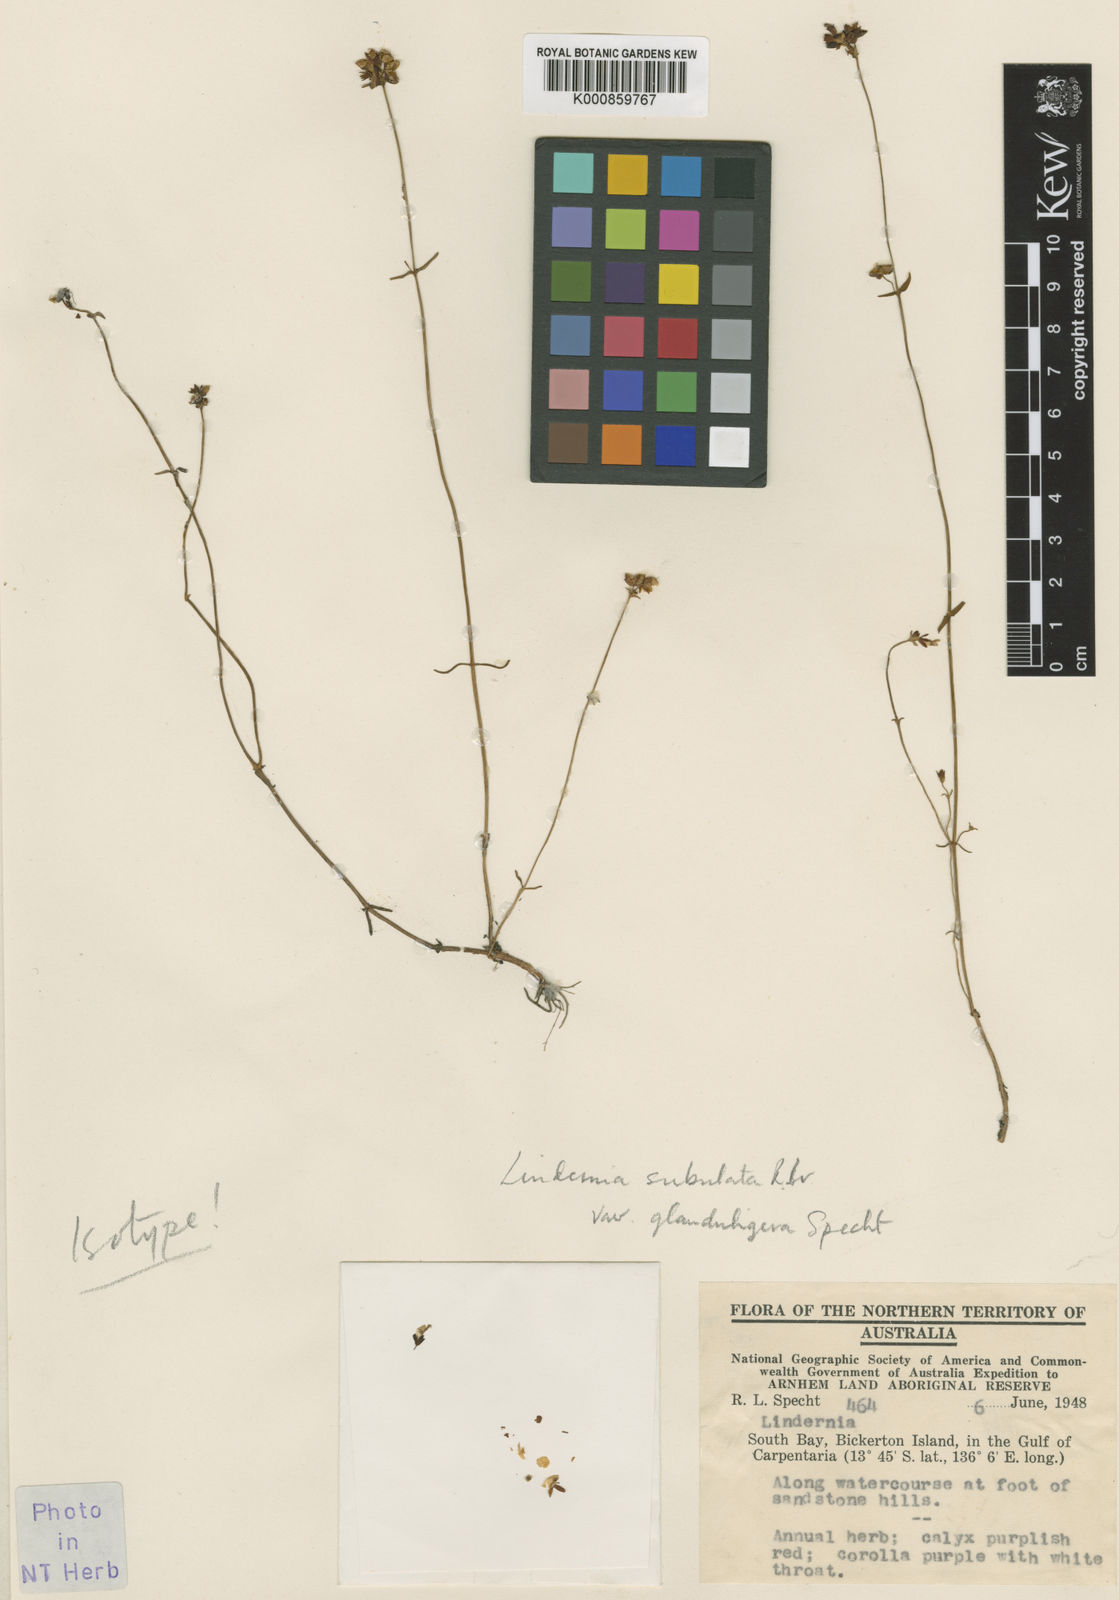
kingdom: Plantae
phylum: Tracheophyta
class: Magnoliopsida
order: Lamiales
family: Linderniaceae
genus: Vandellia
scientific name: Vandellia subulata
